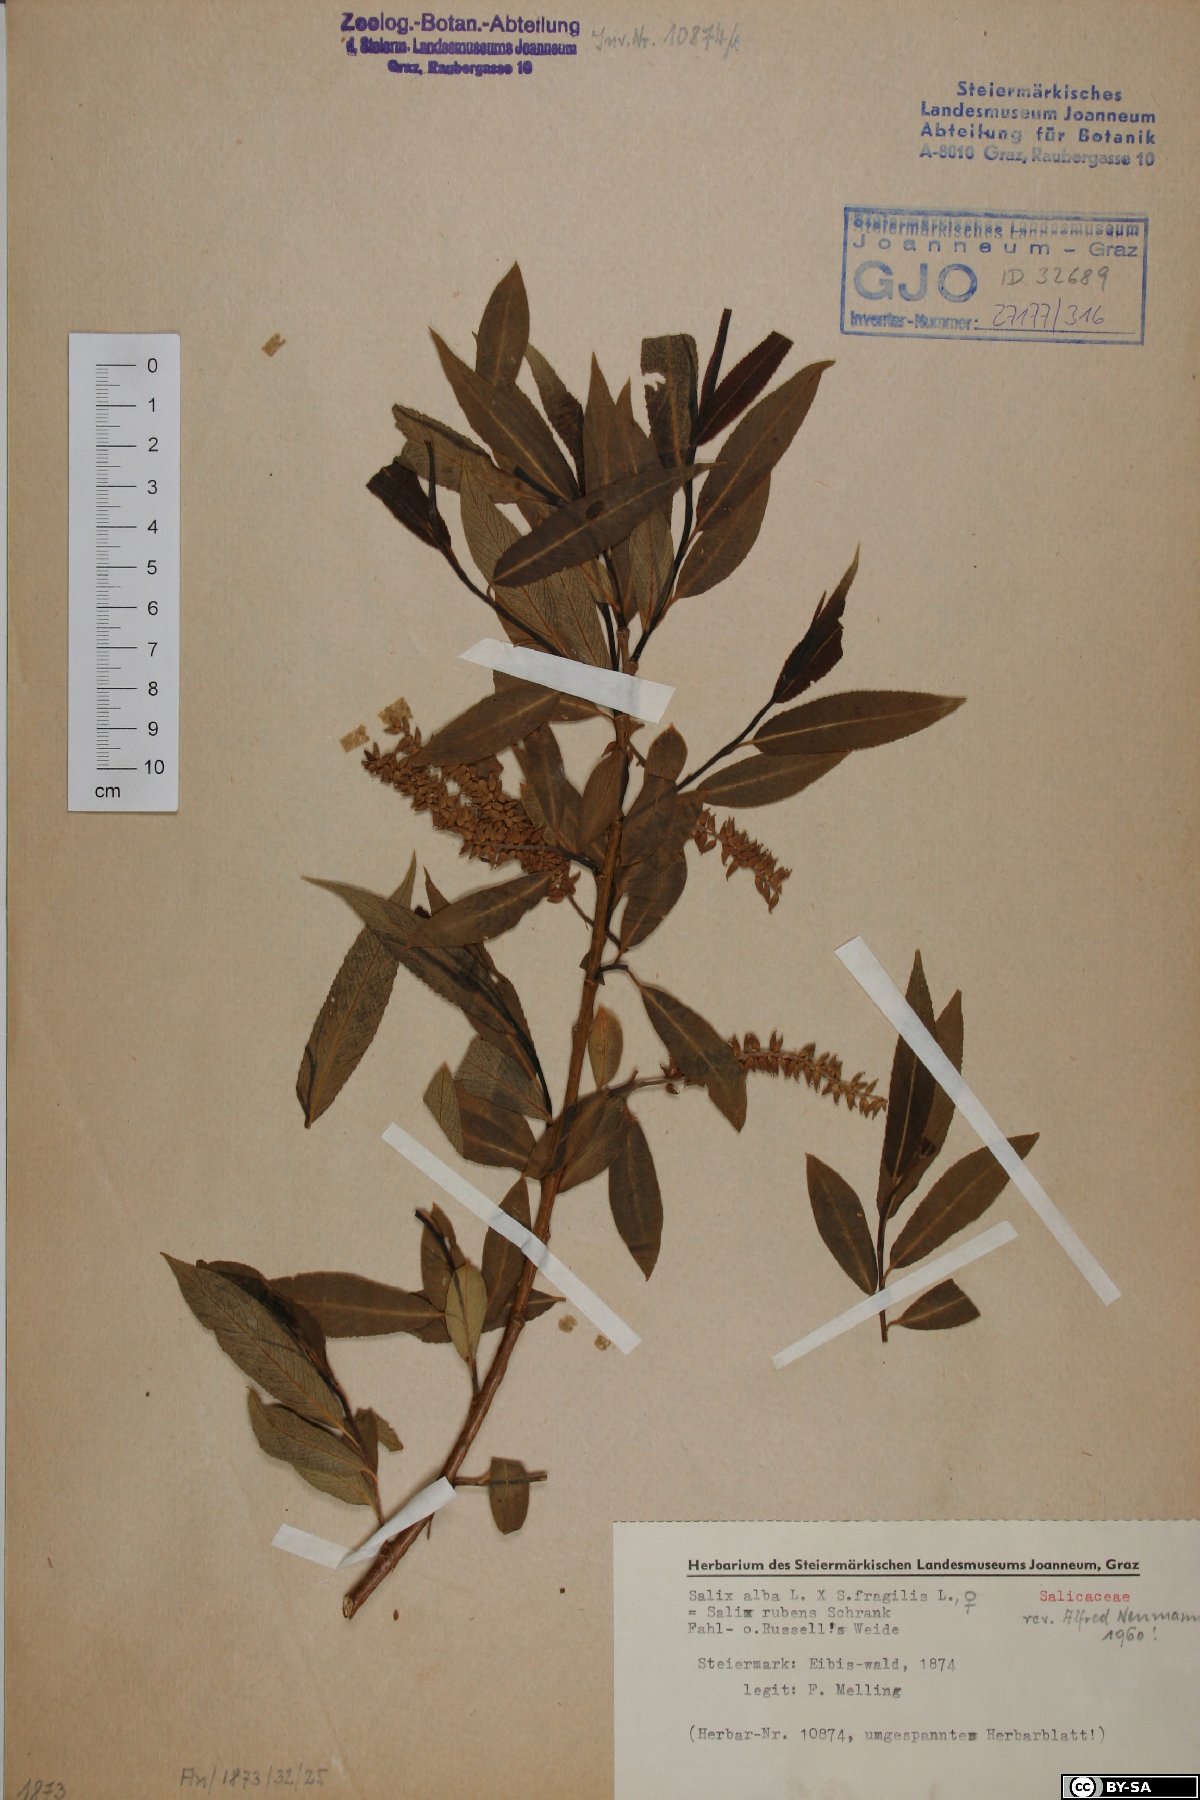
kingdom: Plantae
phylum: Tracheophyta
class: Magnoliopsida
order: Malpighiales
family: Salicaceae
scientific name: Salicaceae
